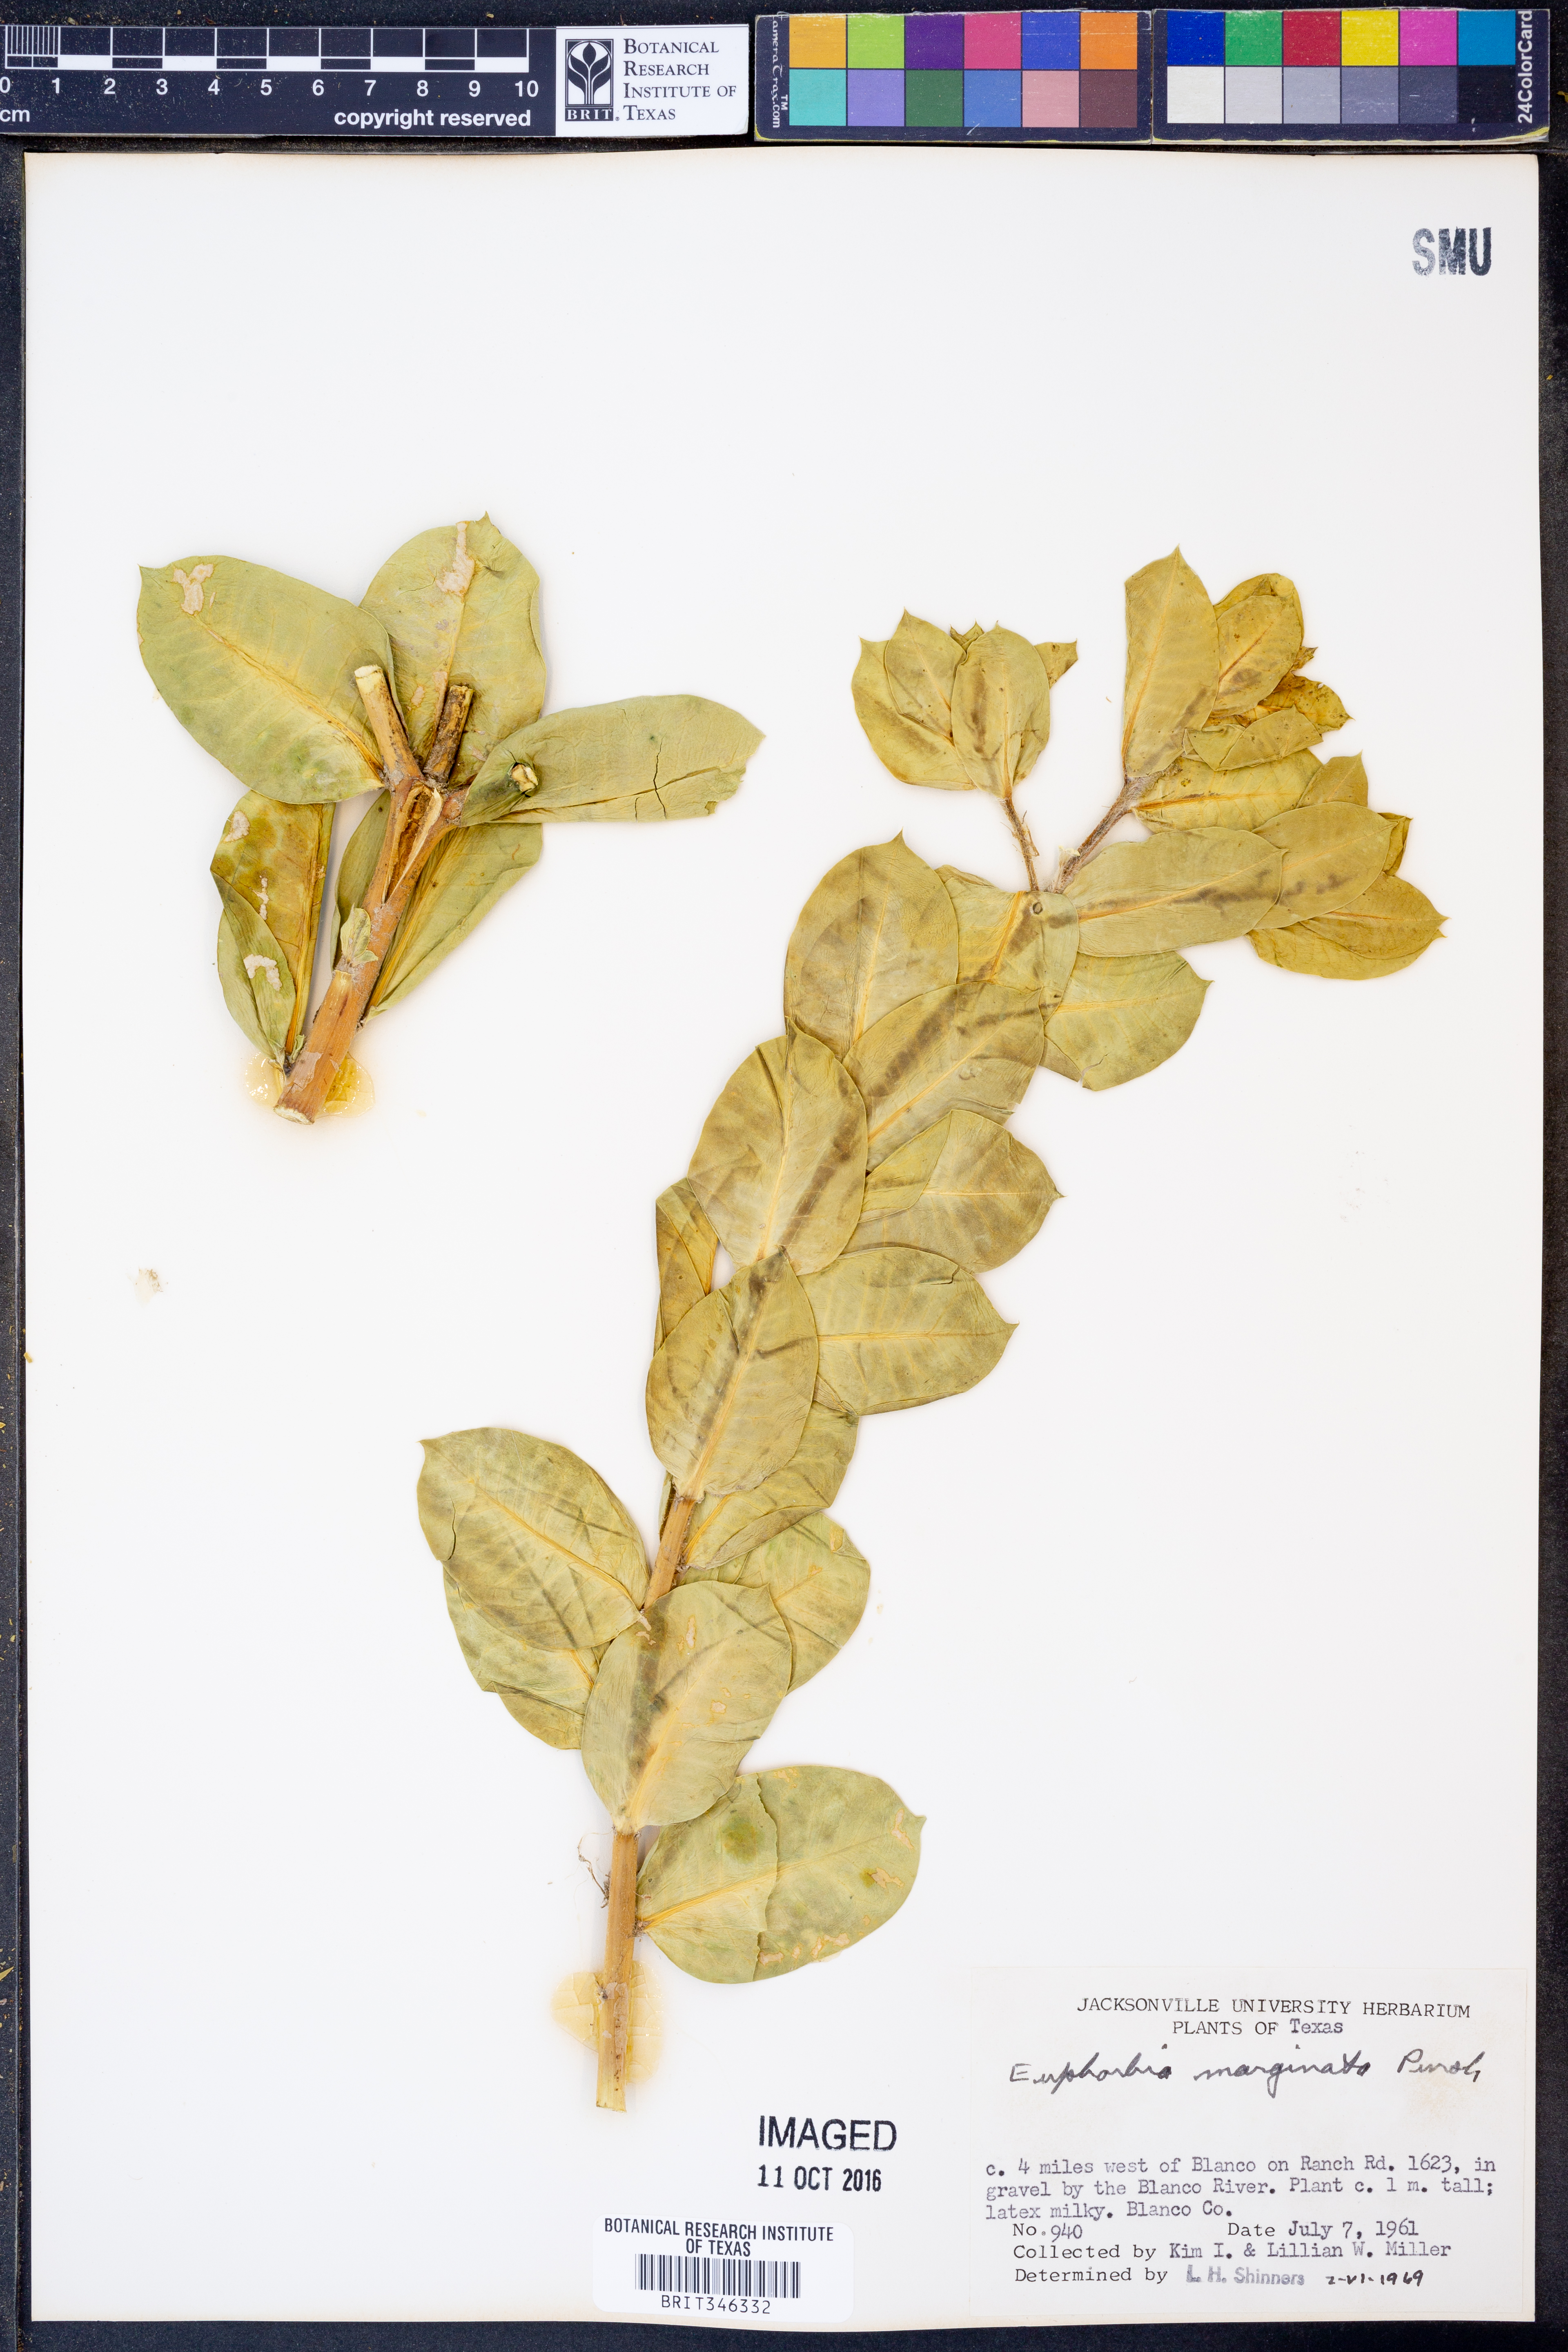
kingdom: Plantae
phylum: Tracheophyta
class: Magnoliopsida
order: Malpighiales
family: Euphorbiaceae
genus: Euphorbia
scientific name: Euphorbia marginata
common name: Ghostweed
